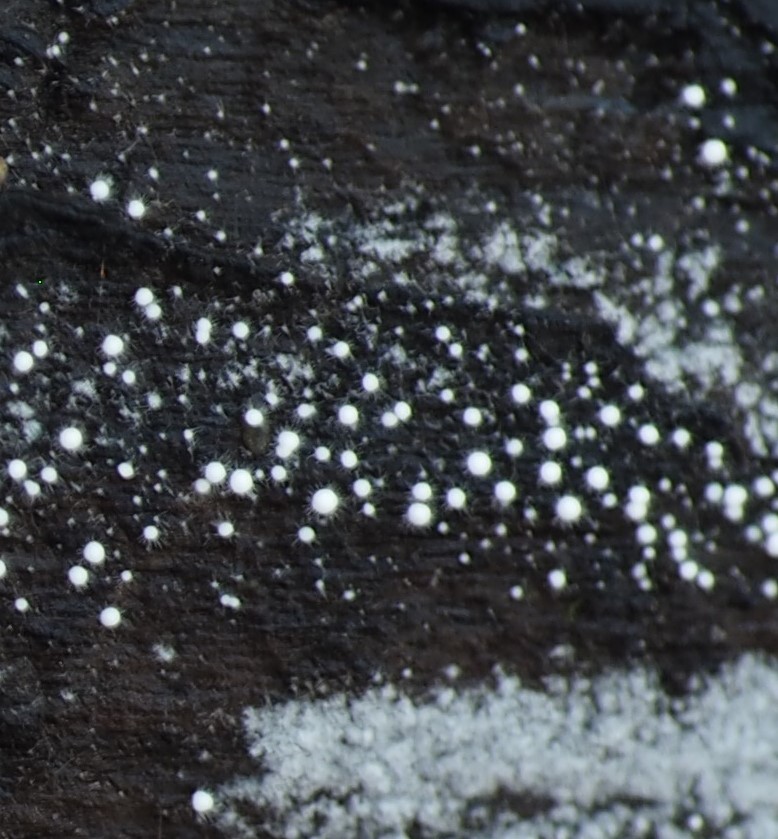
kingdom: Fungi
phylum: Basidiomycota
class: Agaricomycetes
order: Trechisporales
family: Hydnodontaceae
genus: Subulicystidium
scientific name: Subulicystidium longisporum
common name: almindelig pigtrådshinde
